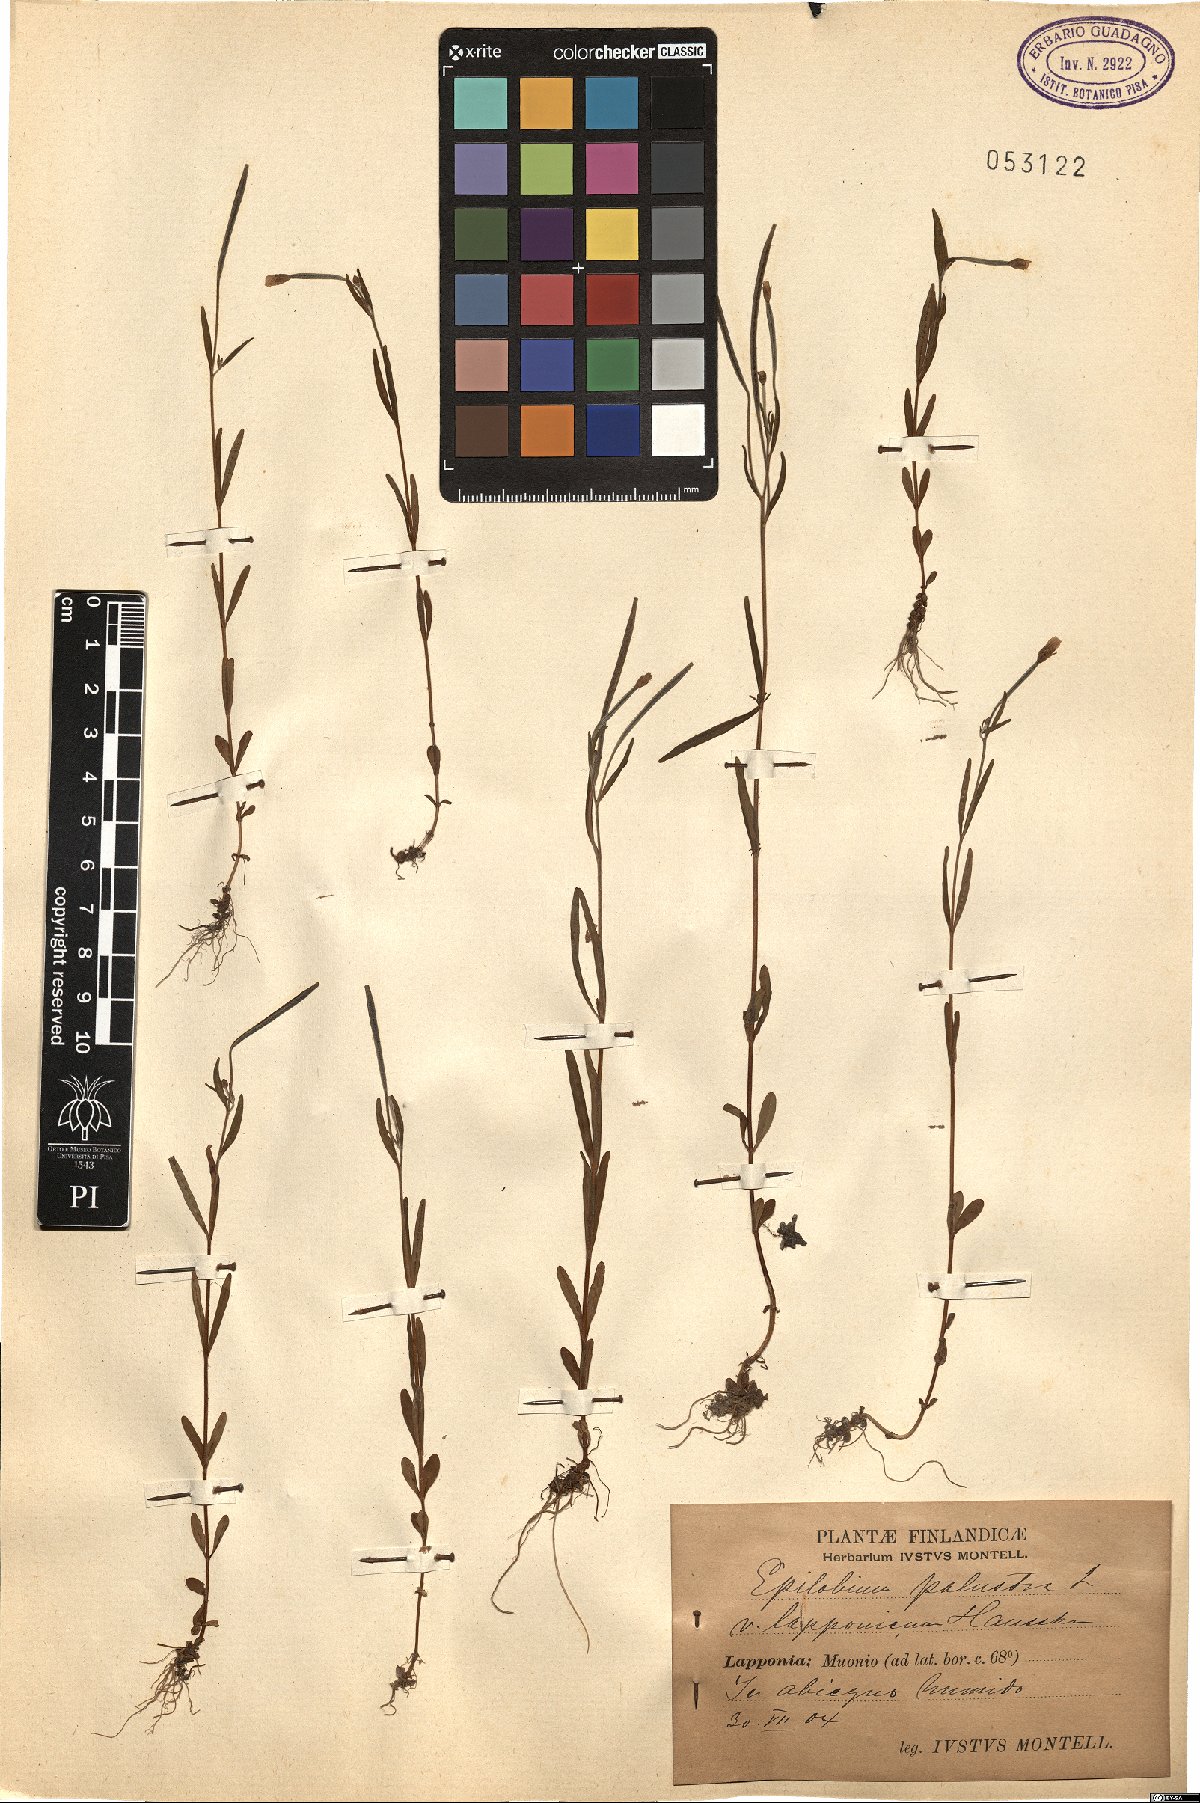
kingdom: Plantae
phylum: Tracheophyta
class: Magnoliopsida
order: Myrtales
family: Onagraceae
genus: Epilobium
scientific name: Epilobium palustre
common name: Marsh willowherb
